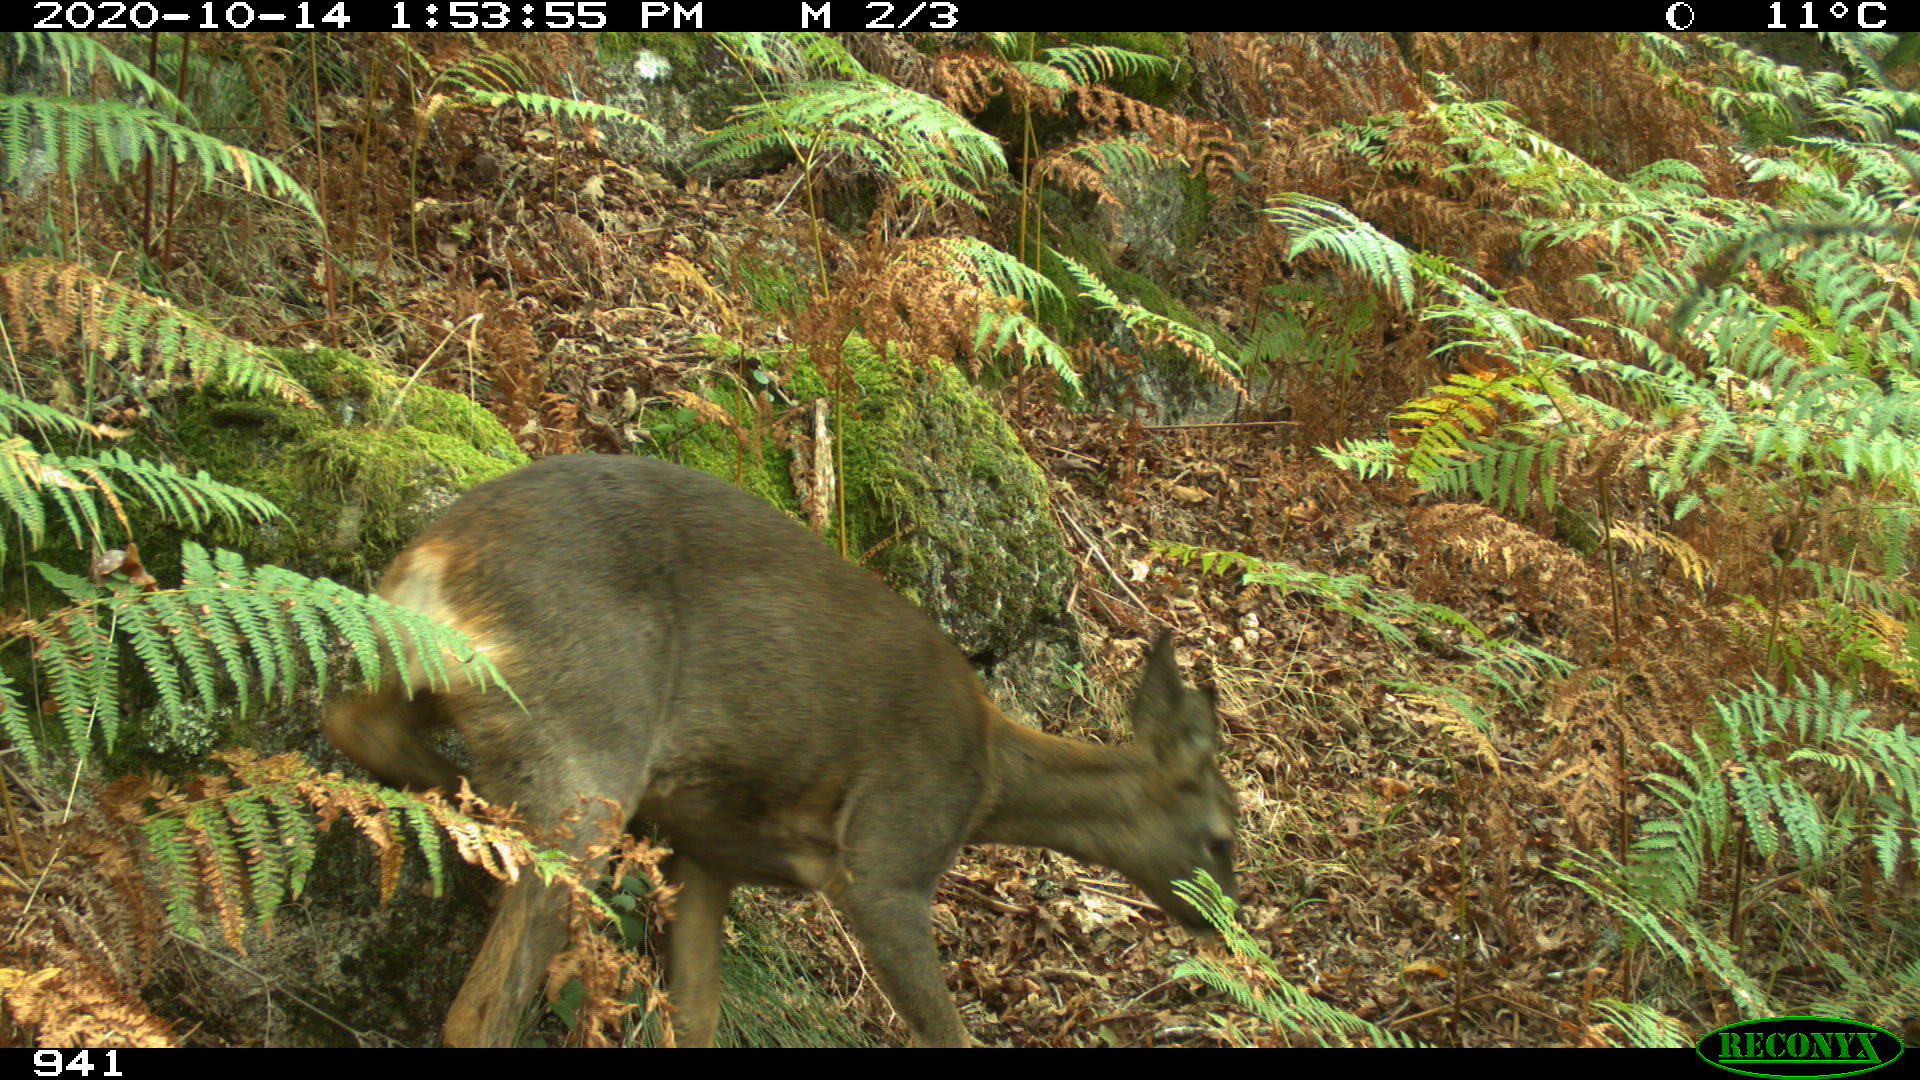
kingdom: Animalia
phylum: Chordata
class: Mammalia
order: Artiodactyla
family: Cervidae
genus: Capreolus
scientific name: Capreolus capreolus
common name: Western roe deer
